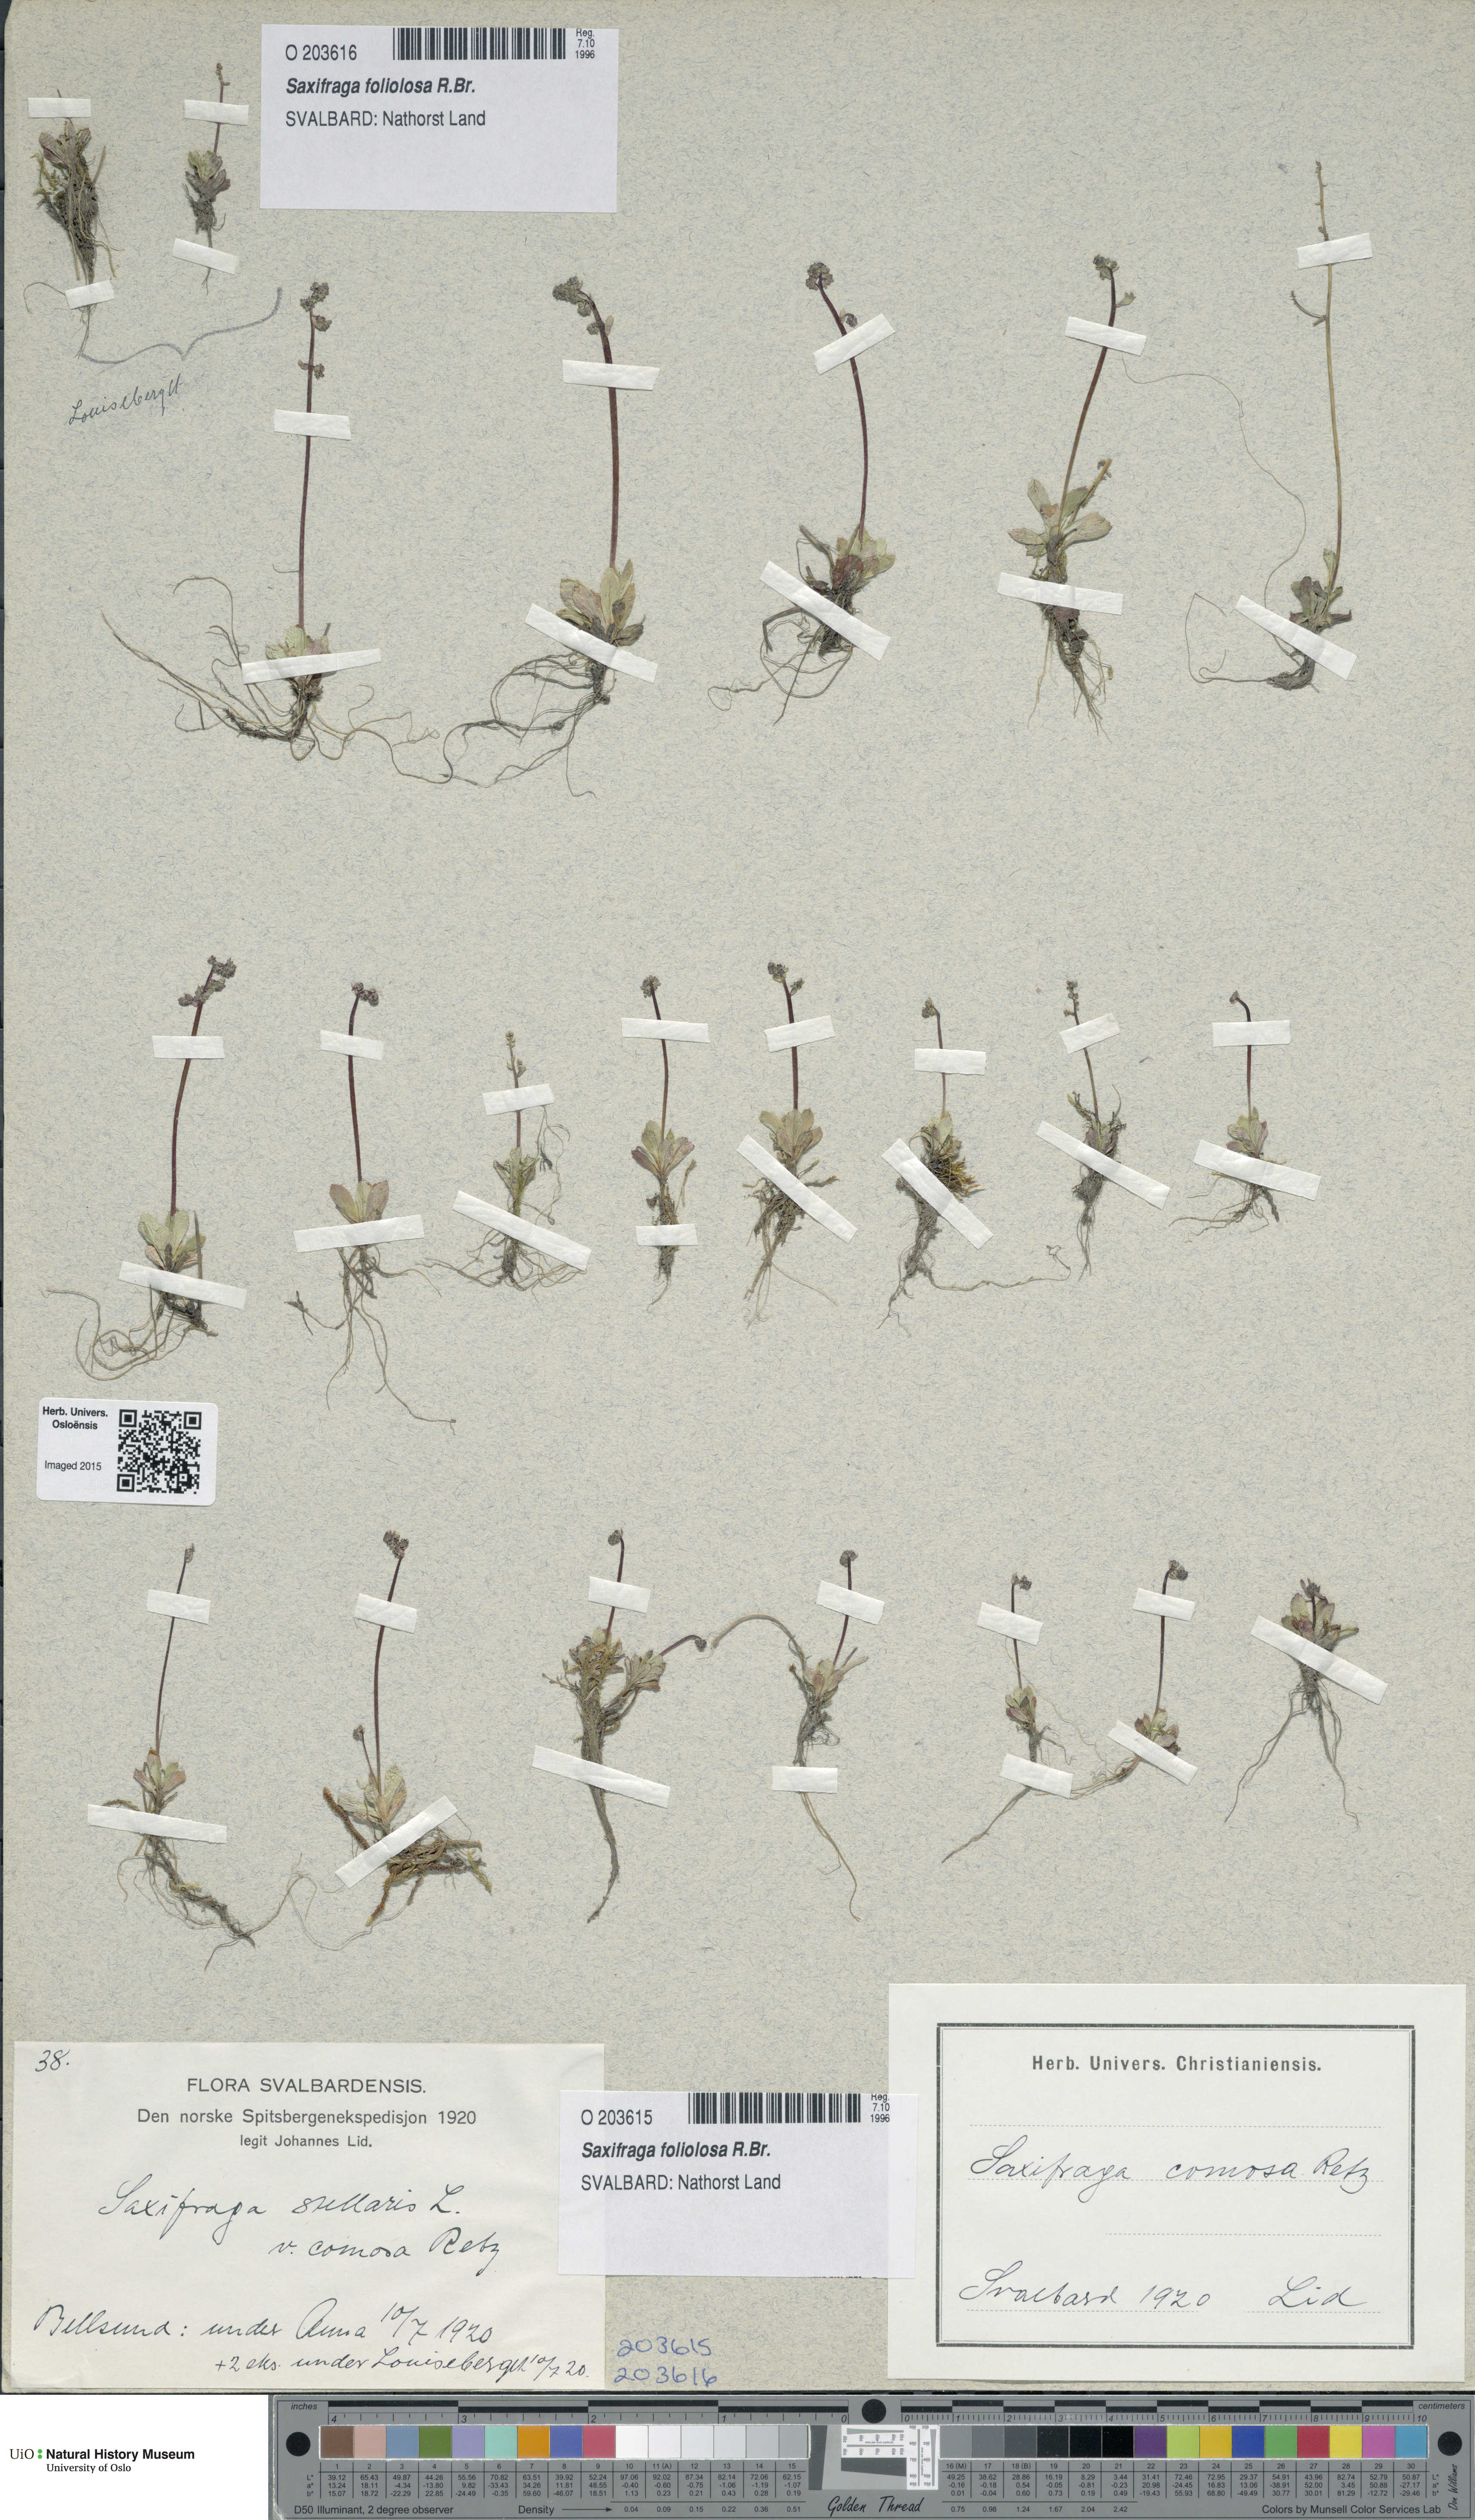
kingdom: Plantae
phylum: Tracheophyta
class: Magnoliopsida
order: Saxifragales
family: Saxifragaceae
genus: Micranthes
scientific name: Micranthes foliolosa
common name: Leafystem saxifrage
